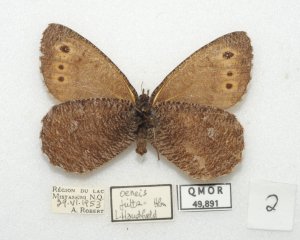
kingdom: Animalia
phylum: Arthropoda
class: Insecta
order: Lepidoptera
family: Nymphalidae
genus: Oeneis
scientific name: Oeneis jutta
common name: Jutta Arctic
